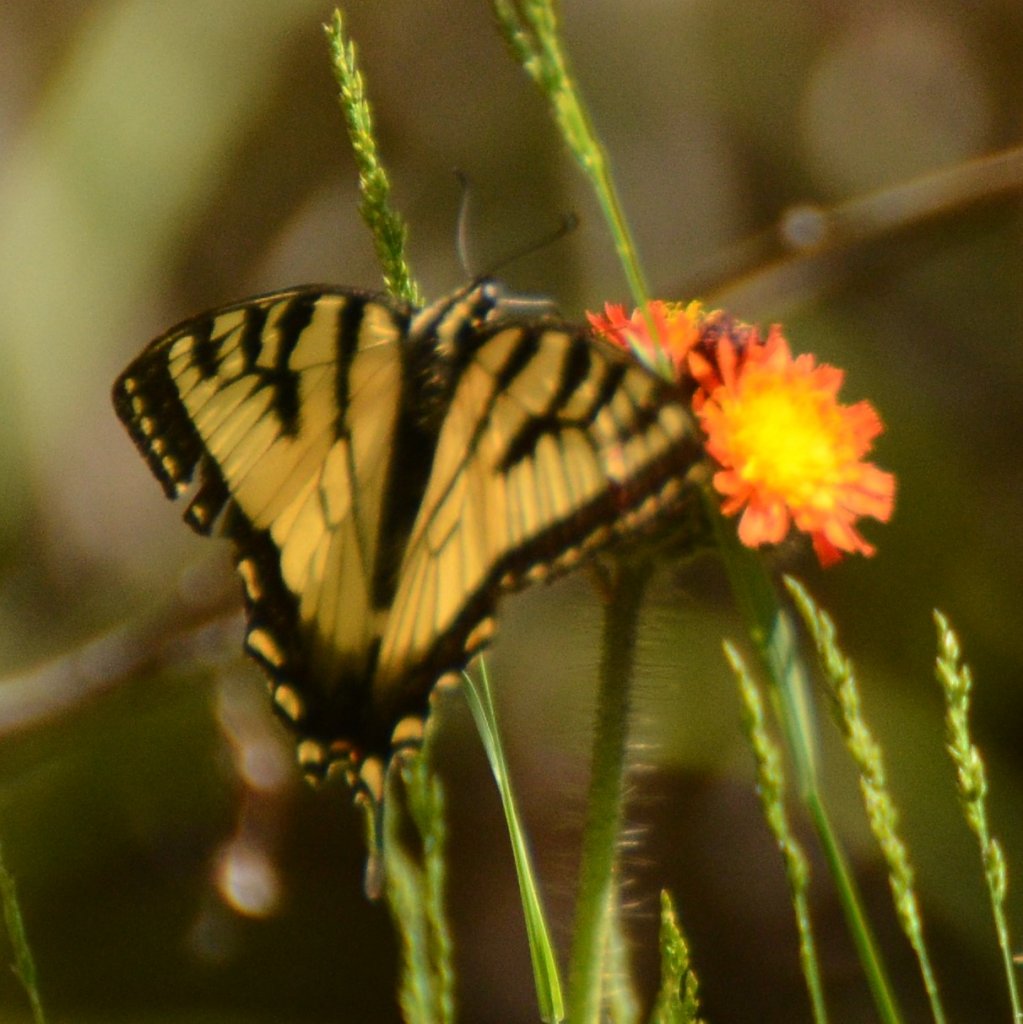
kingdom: Animalia
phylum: Arthropoda
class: Insecta
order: Lepidoptera
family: Papilionidae
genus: Pterourus
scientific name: Pterourus canadensis
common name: Canadian Tiger Swallowtail
